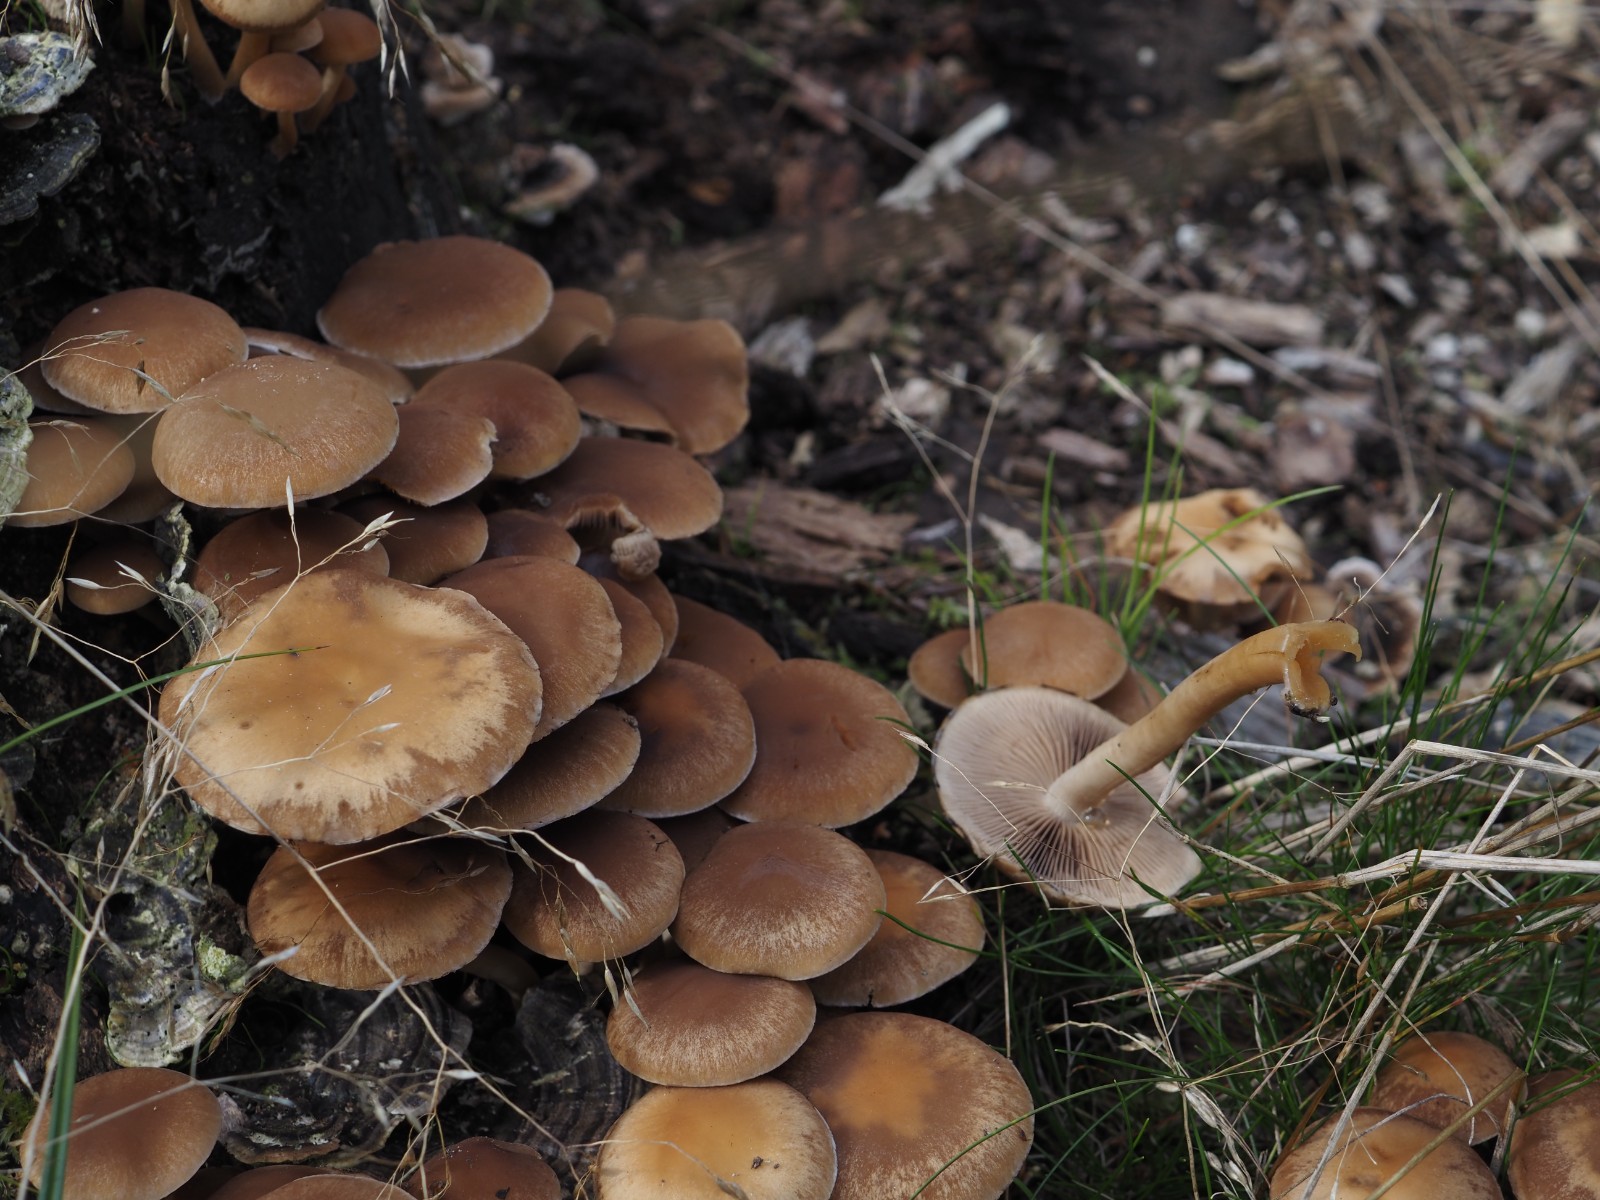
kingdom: Fungi
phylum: Basidiomycota
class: Agaricomycetes
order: Agaricales
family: Psathyrellaceae
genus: Psathyrella
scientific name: Psathyrella piluliformis
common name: lysstokket mørkhat
